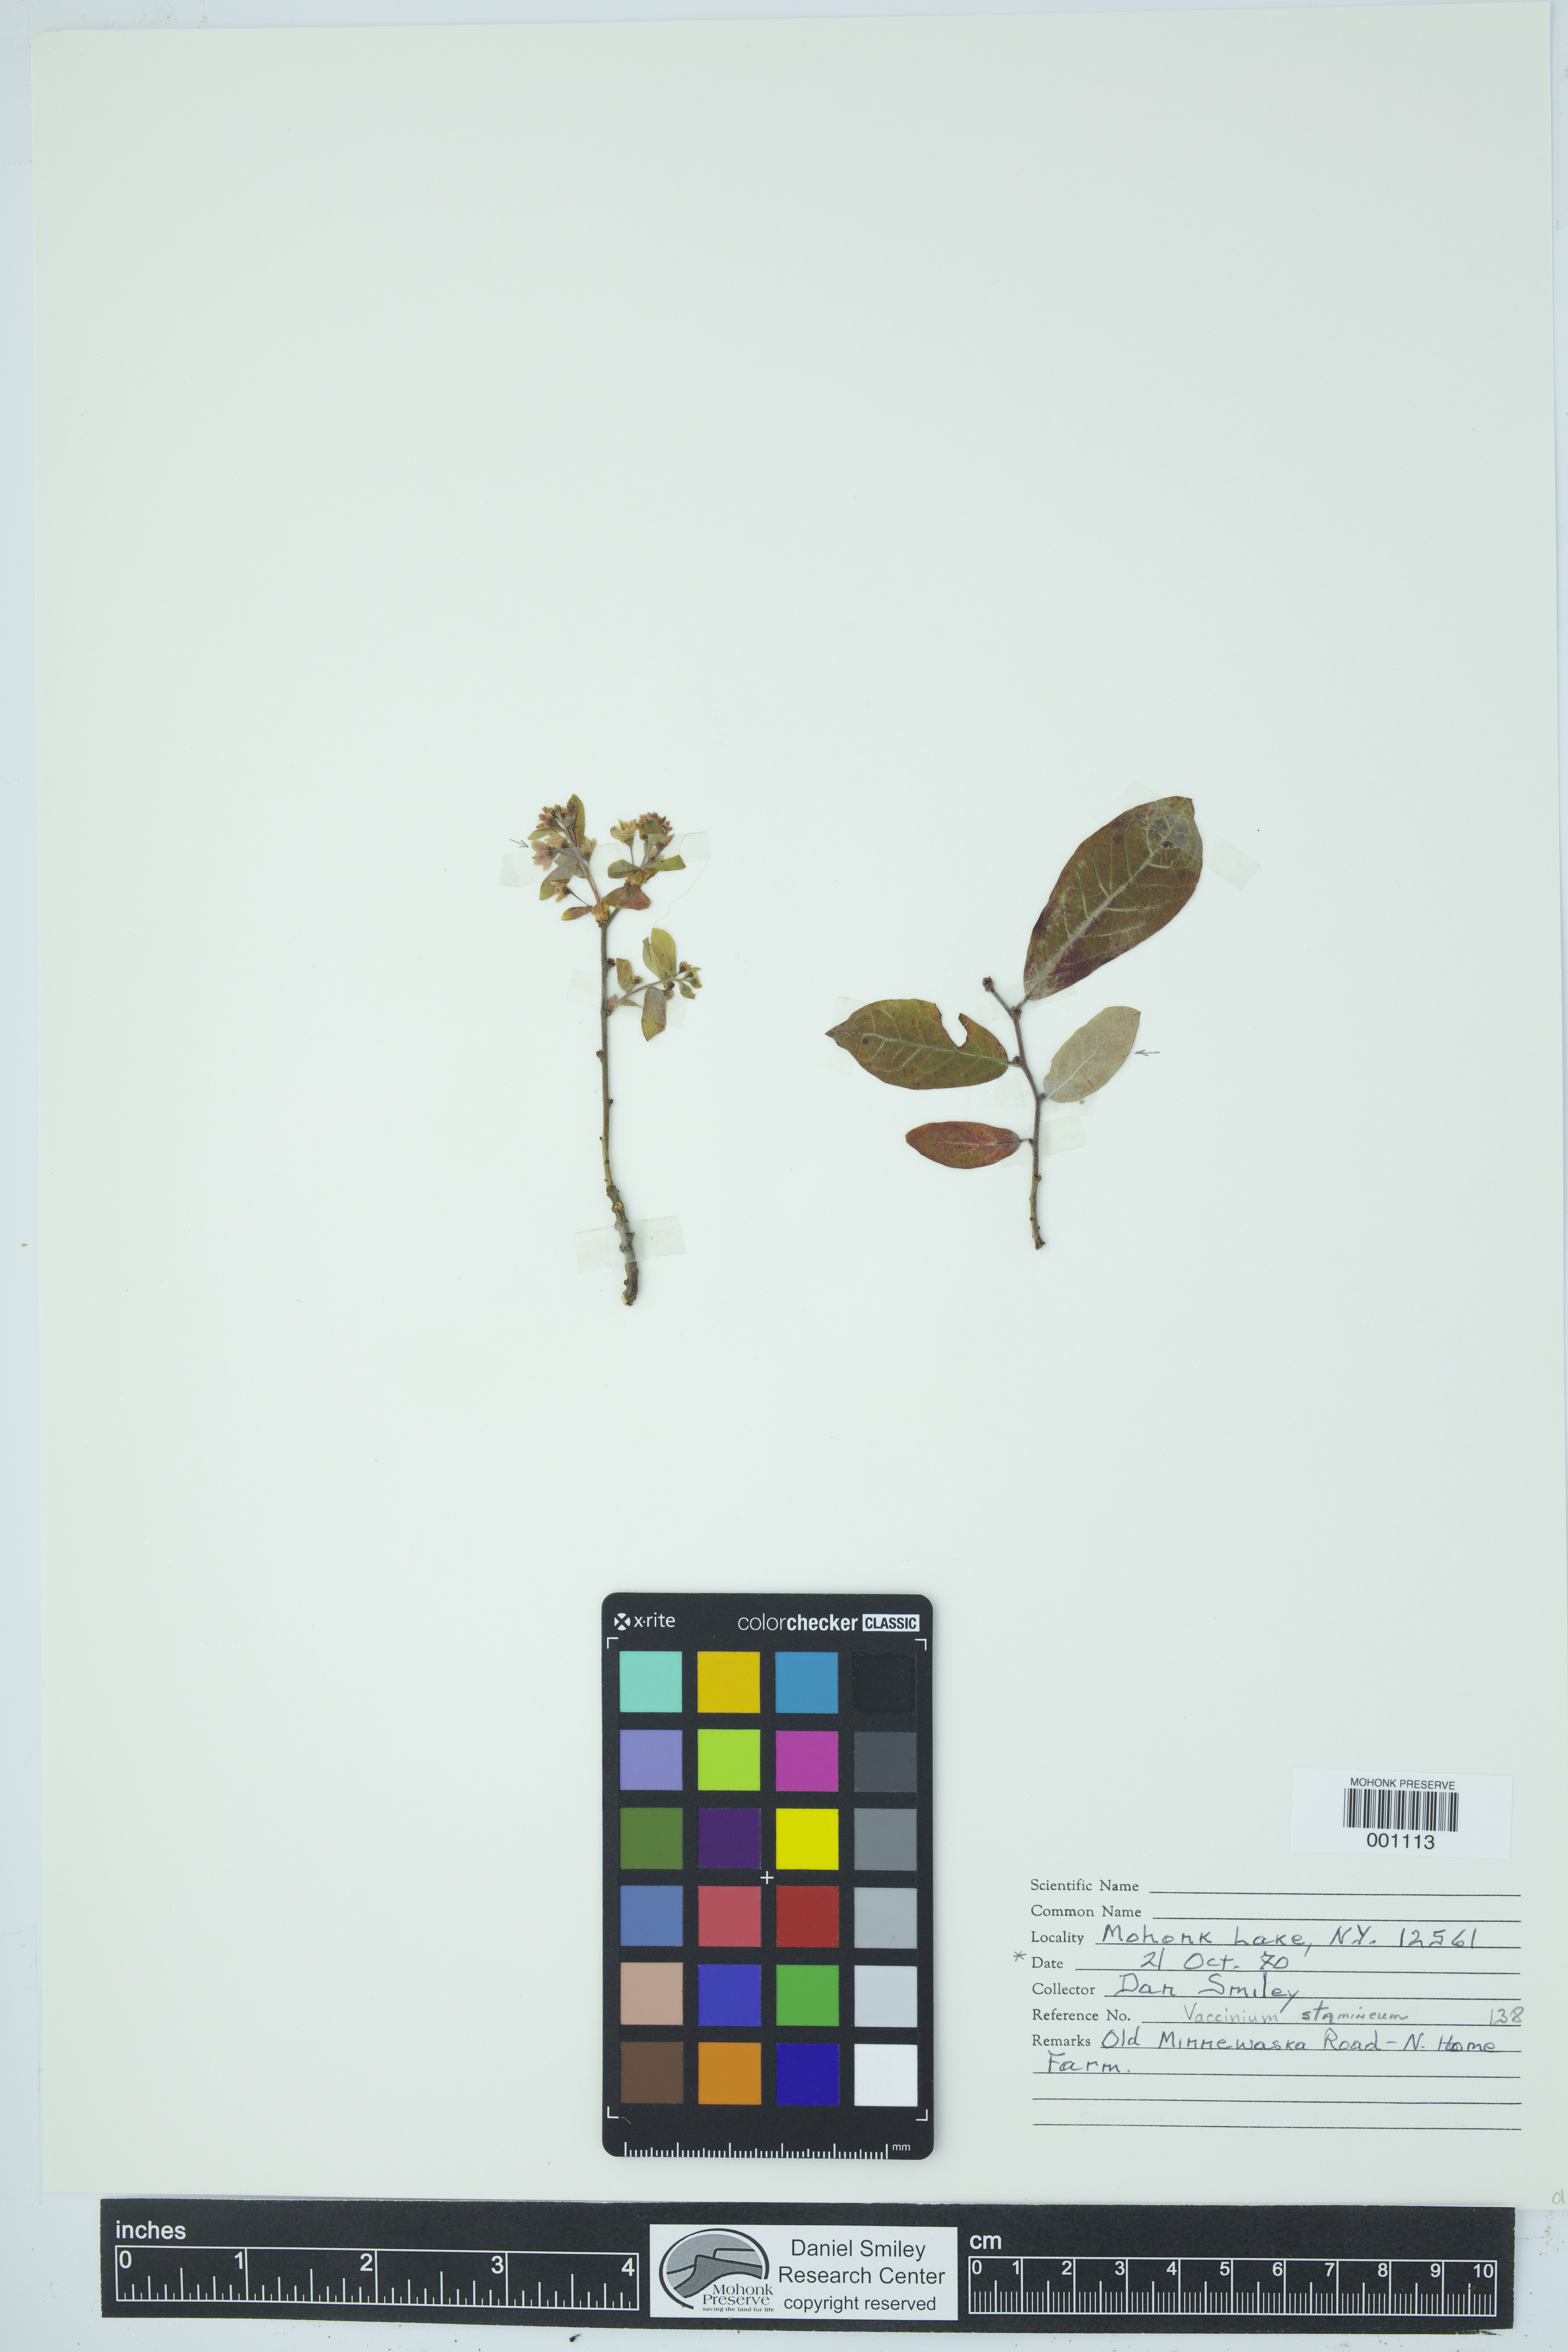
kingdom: Plantae
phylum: Tracheophyta
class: Magnoliopsida
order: Ericales
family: Ericaceae
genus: Vaccinium
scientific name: Vaccinium stamineum
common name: Deerberry
